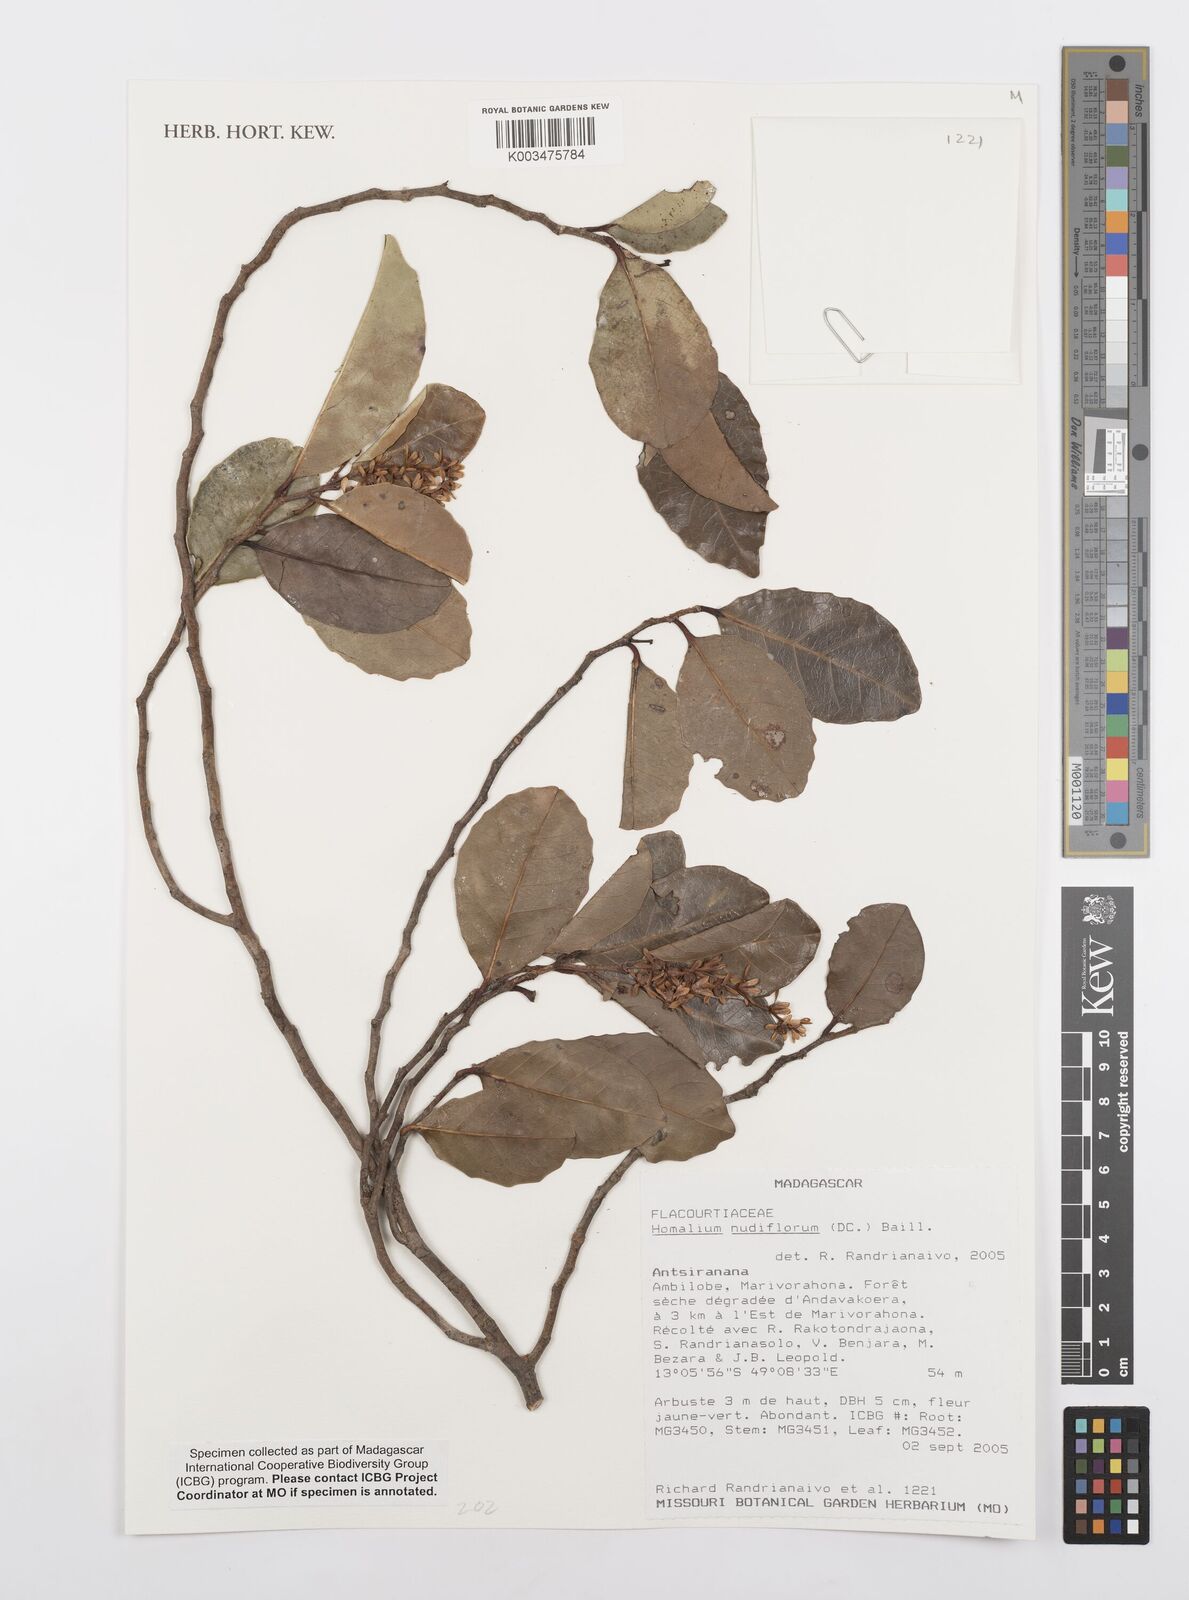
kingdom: Plantae
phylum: Tracheophyta
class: Magnoliopsida
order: Malpighiales
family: Salicaceae
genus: Homalium
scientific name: Homalium nudiflorum
